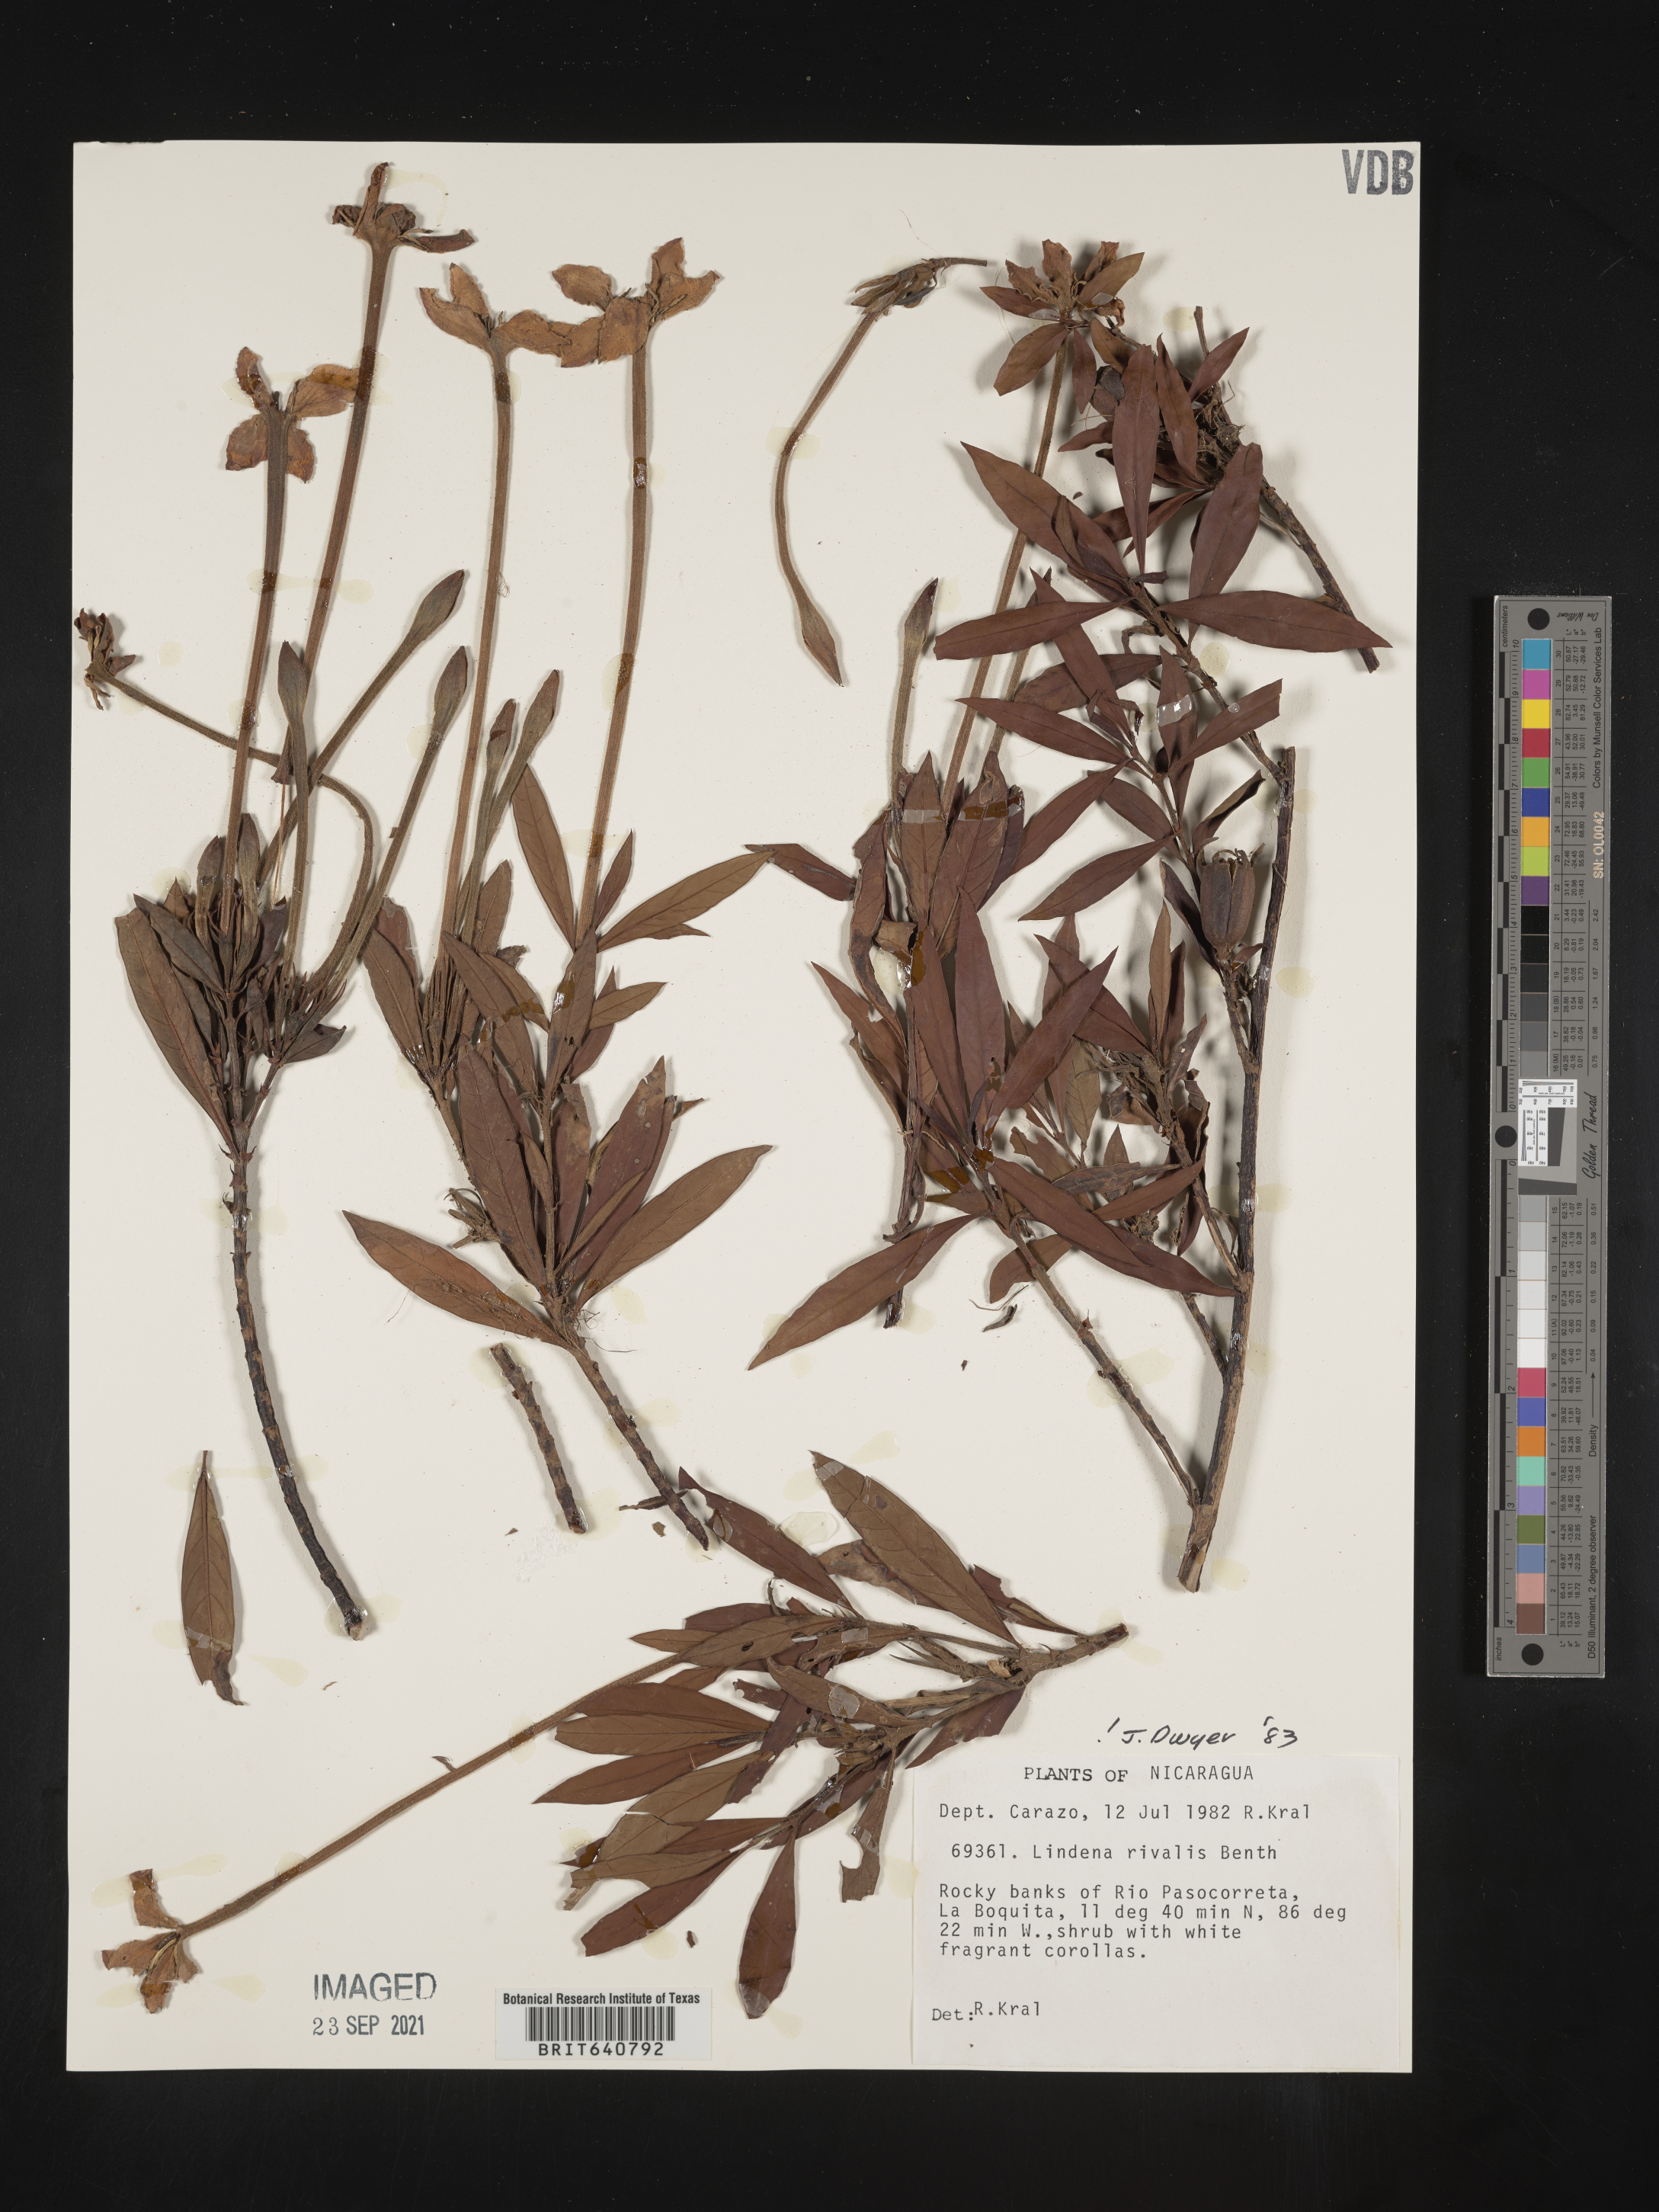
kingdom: Plantae
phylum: Tracheophyta
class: Magnoliopsida
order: Gentianales
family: Rubiaceae
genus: Augusta
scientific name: Augusta rivalis
